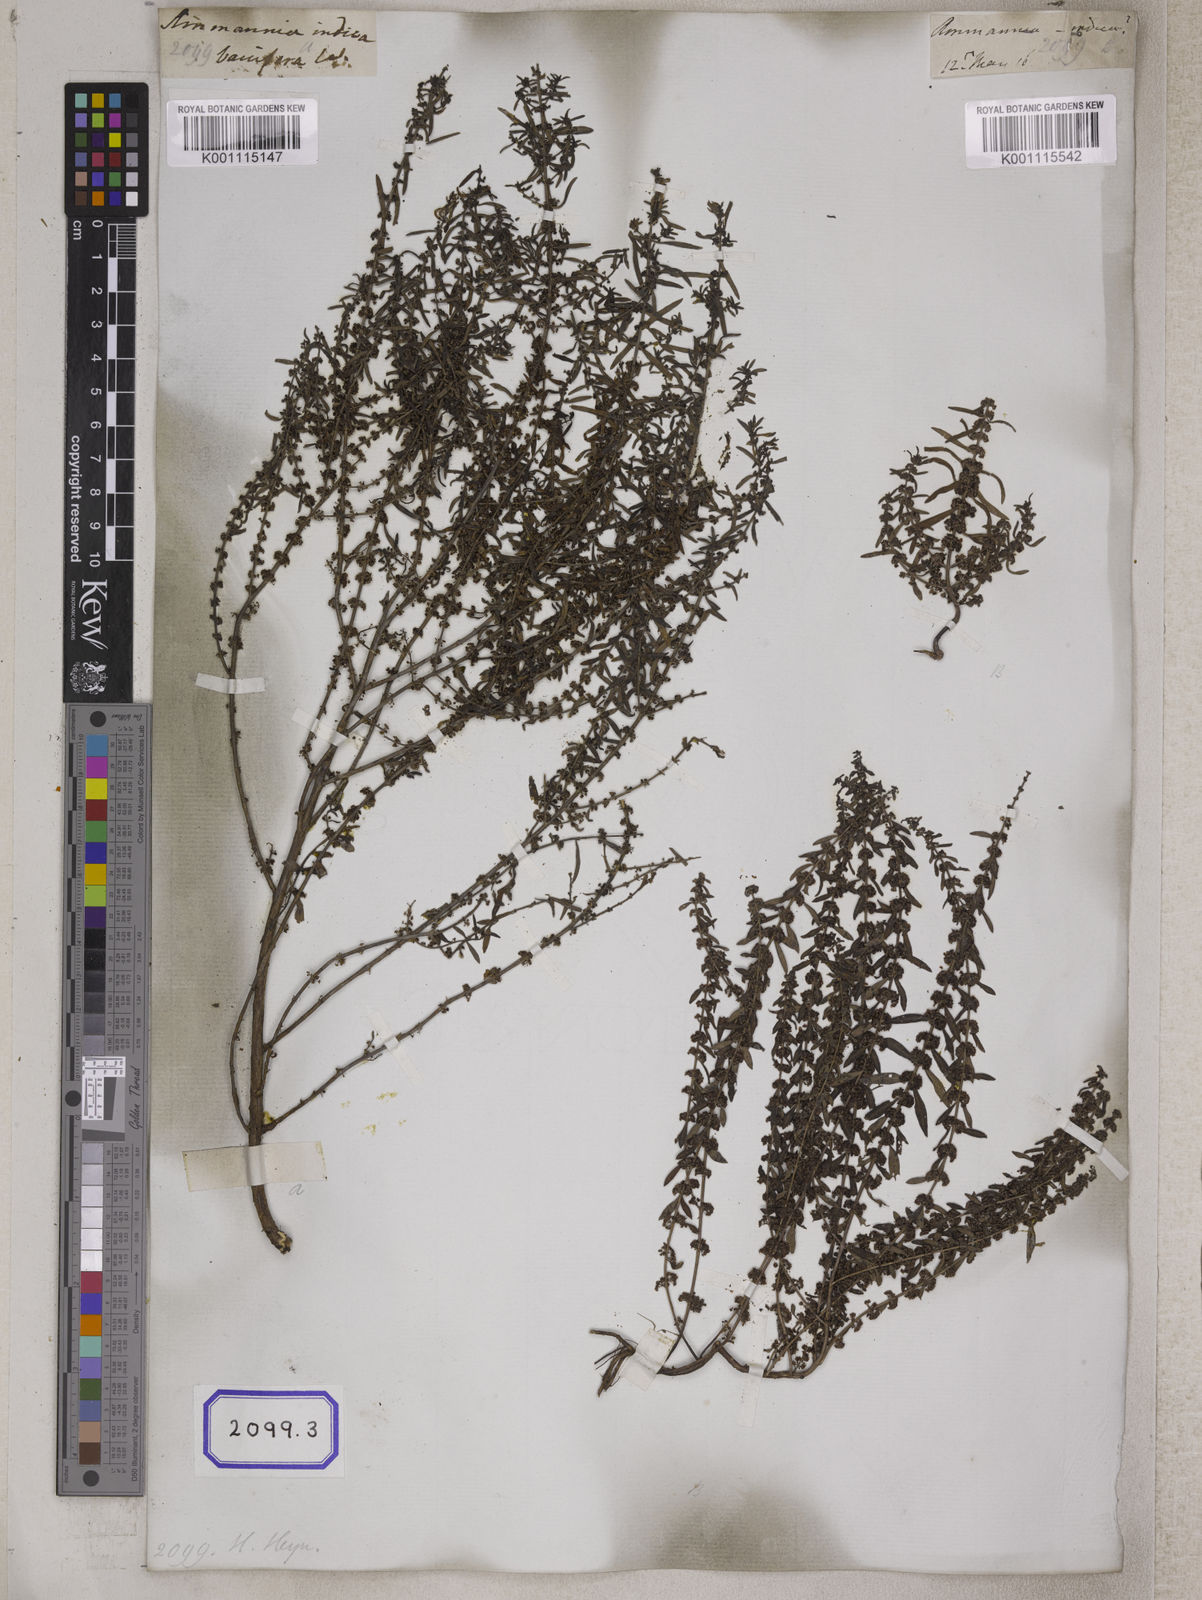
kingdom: Plantae
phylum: Tracheophyta
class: Magnoliopsida
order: Myrtales
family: Lythraceae
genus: Ammannia
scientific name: Ammannia baccifera
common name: Blistering ammania
